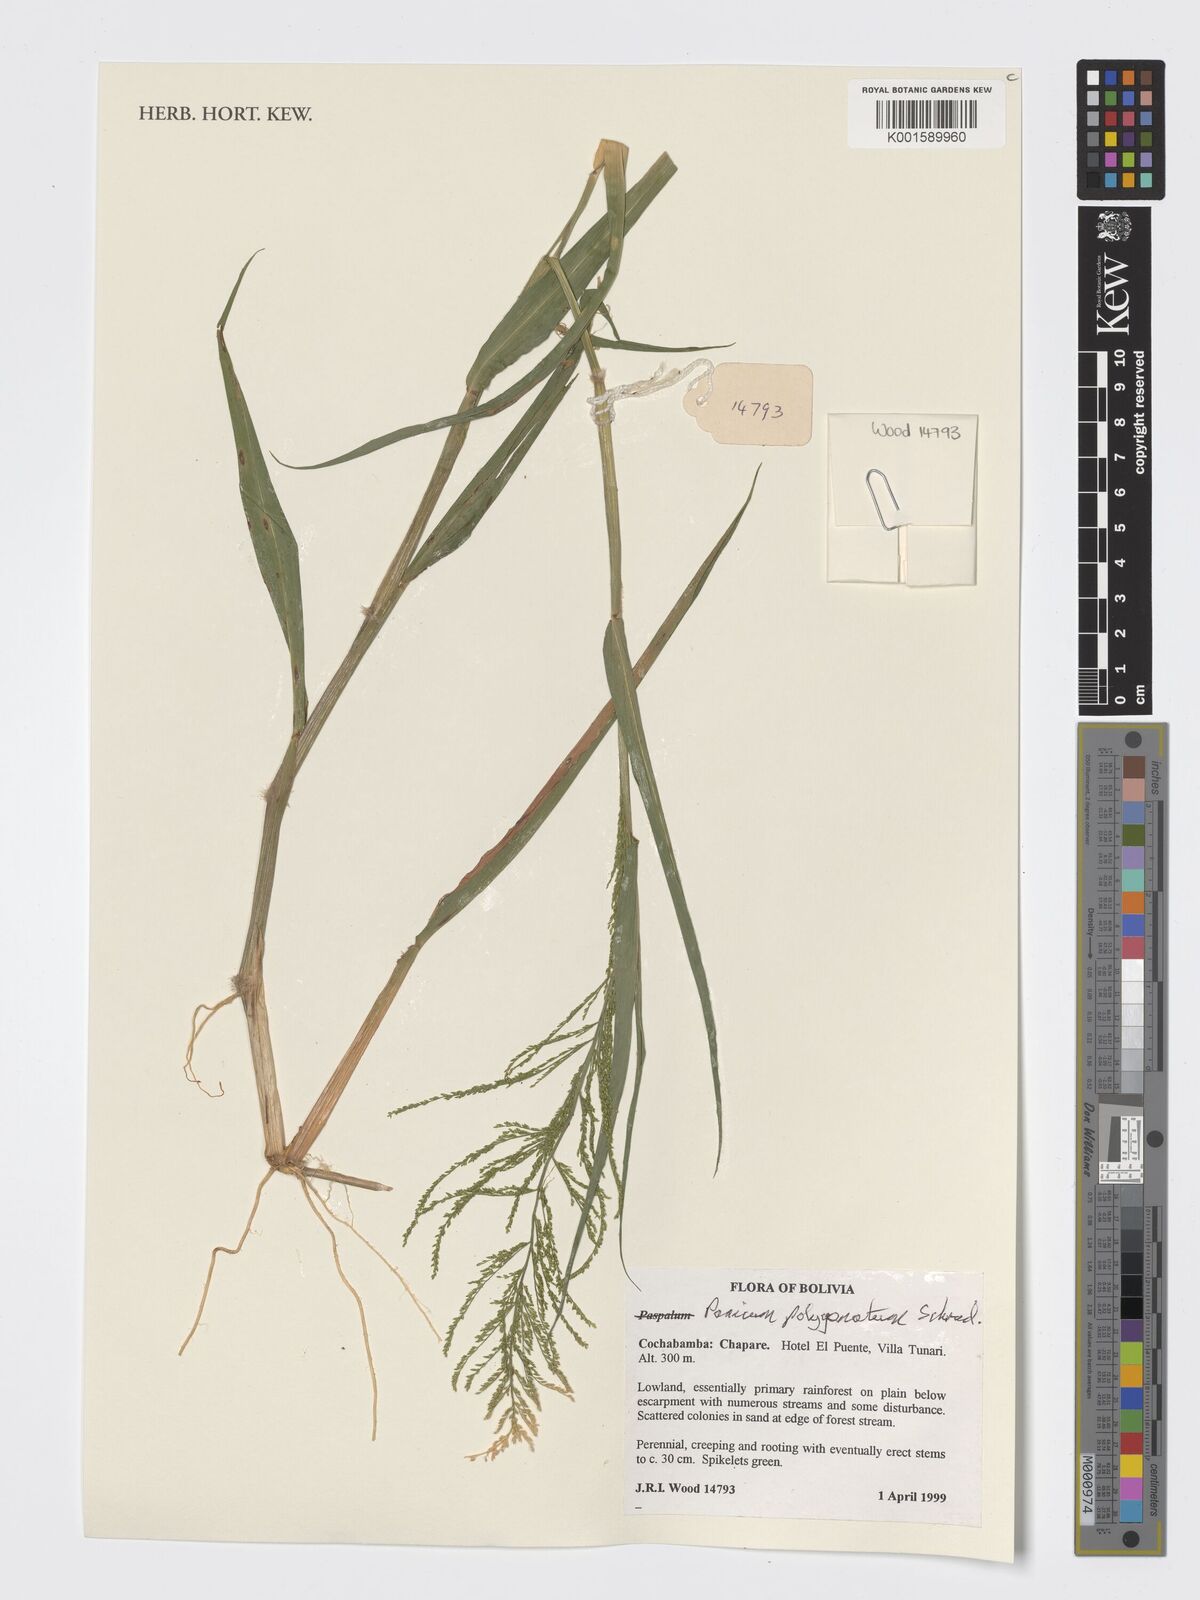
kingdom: Plantae
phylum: Tracheophyta
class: Liliopsida
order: Poales
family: Poaceae
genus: Rugoloa
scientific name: Rugoloa polygonata
